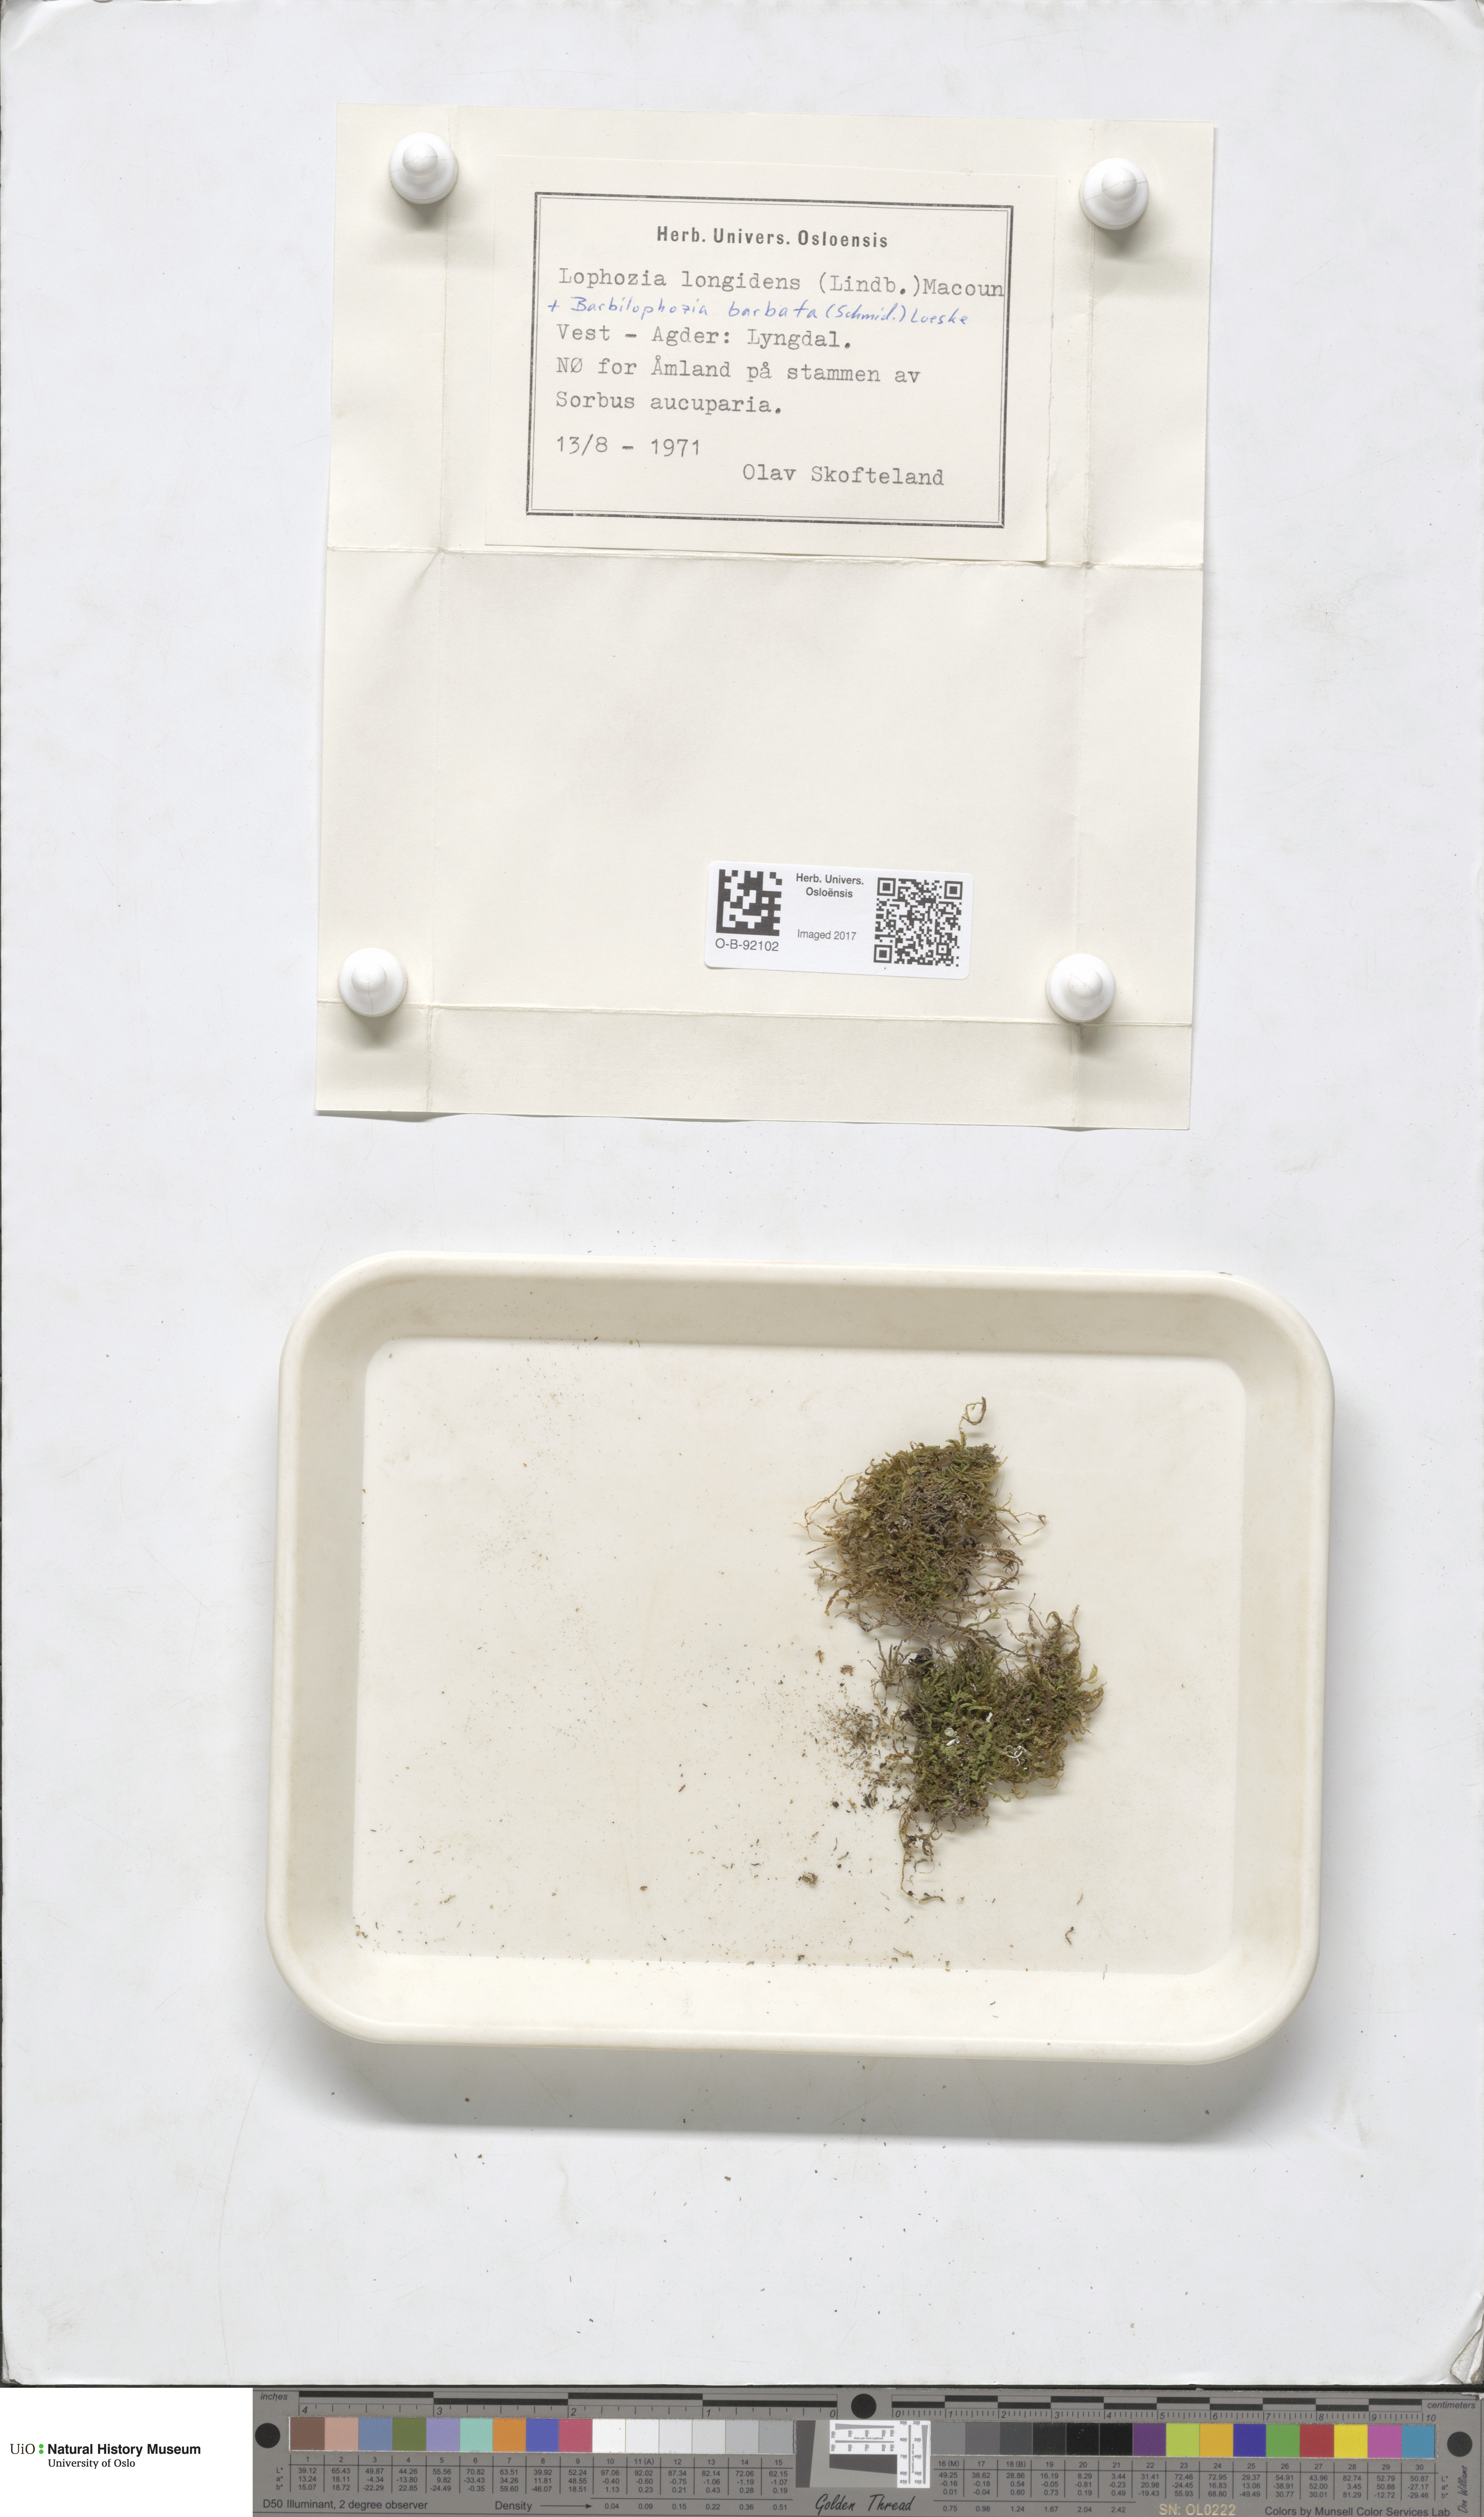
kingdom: Plantae
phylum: Marchantiophyta
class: Jungermanniopsida
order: Jungermanniales
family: Lophoziaceae
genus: Lophoziopsis
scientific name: Lophoziopsis longidens
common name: Horned notchwort
